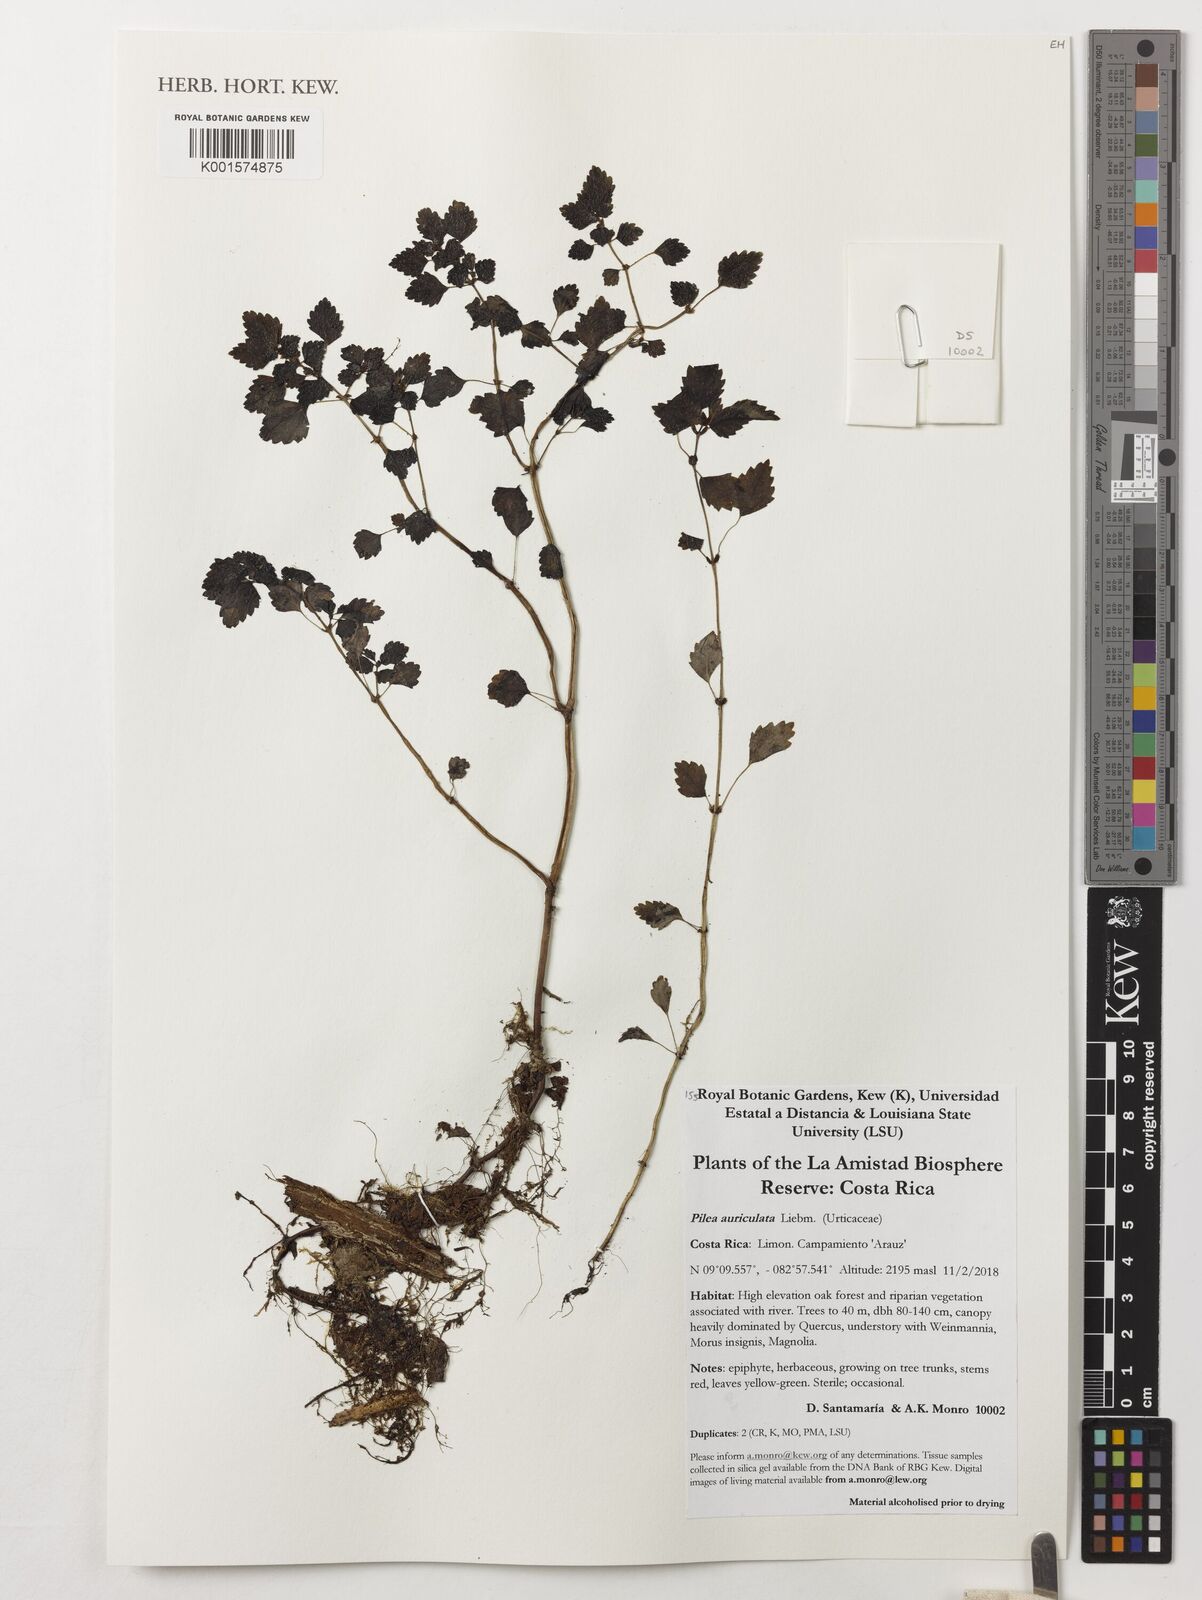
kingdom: Plantae
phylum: Tracheophyta
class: Magnoliopsida
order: Rosales
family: Urticaceae
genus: Pilea
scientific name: Pilea auriculata
